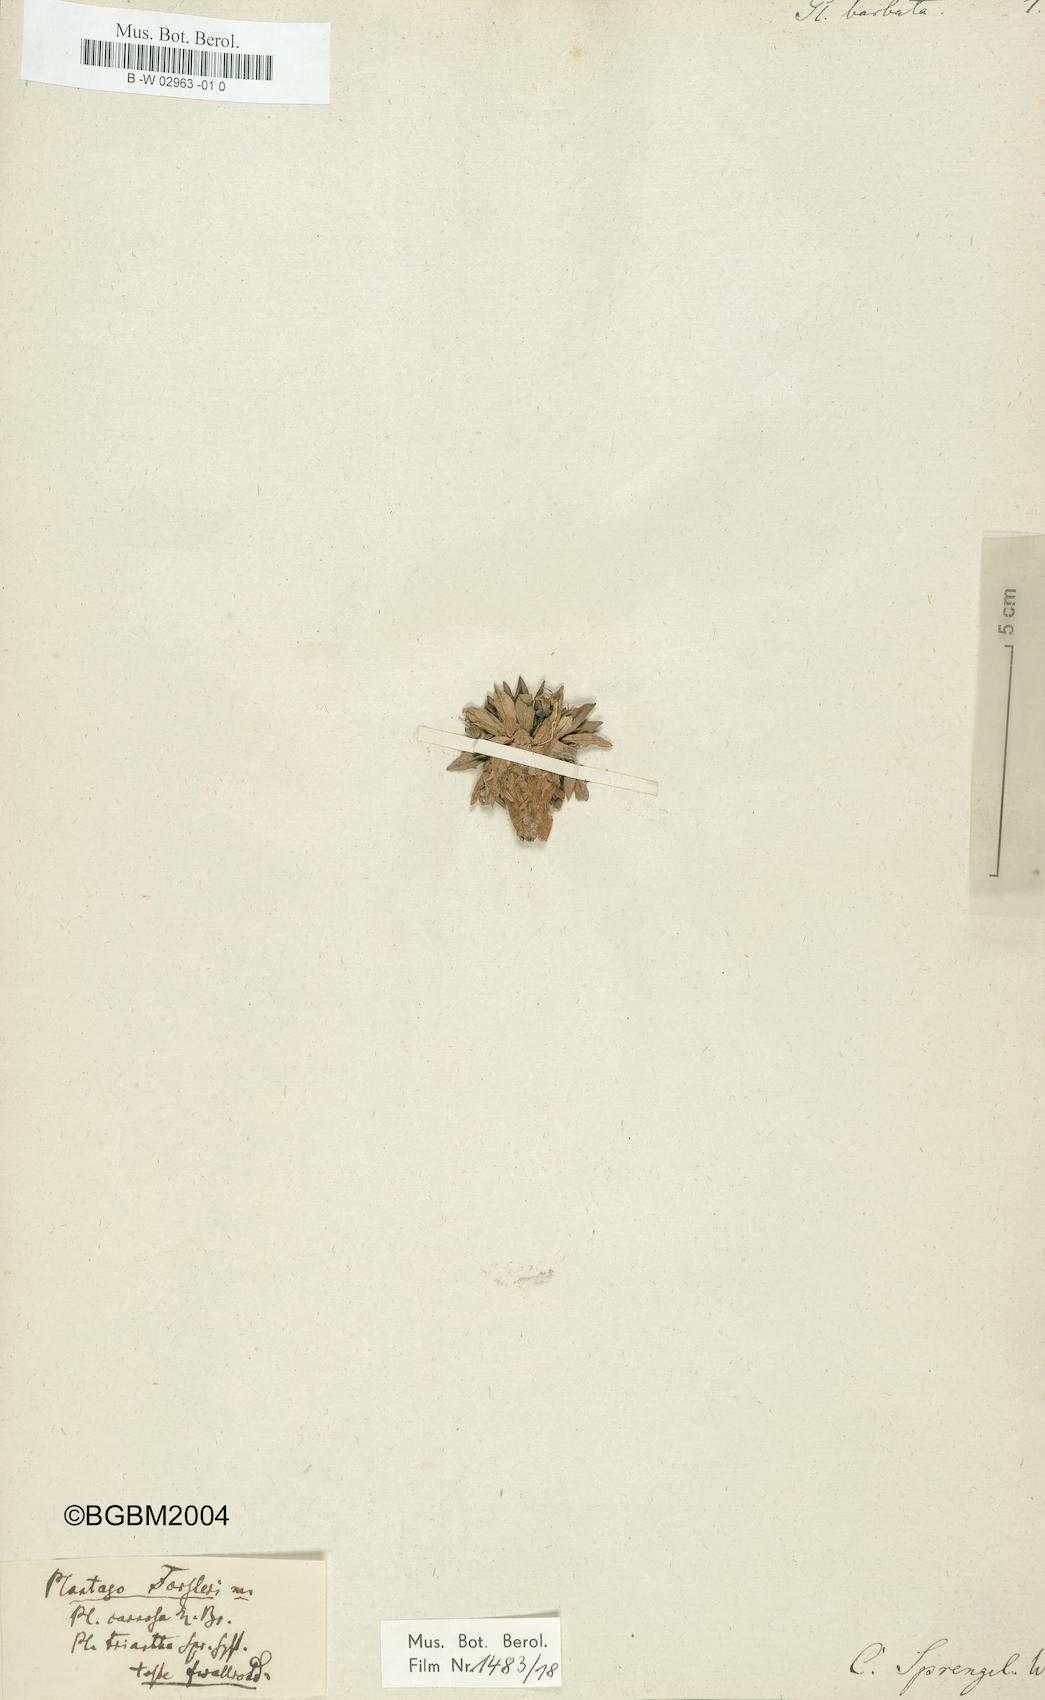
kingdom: Plantae
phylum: Tracheophyta
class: Magnoliopsida
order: Lamiales
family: Plantaginaceae
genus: Plantago
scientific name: Plantago barbata
